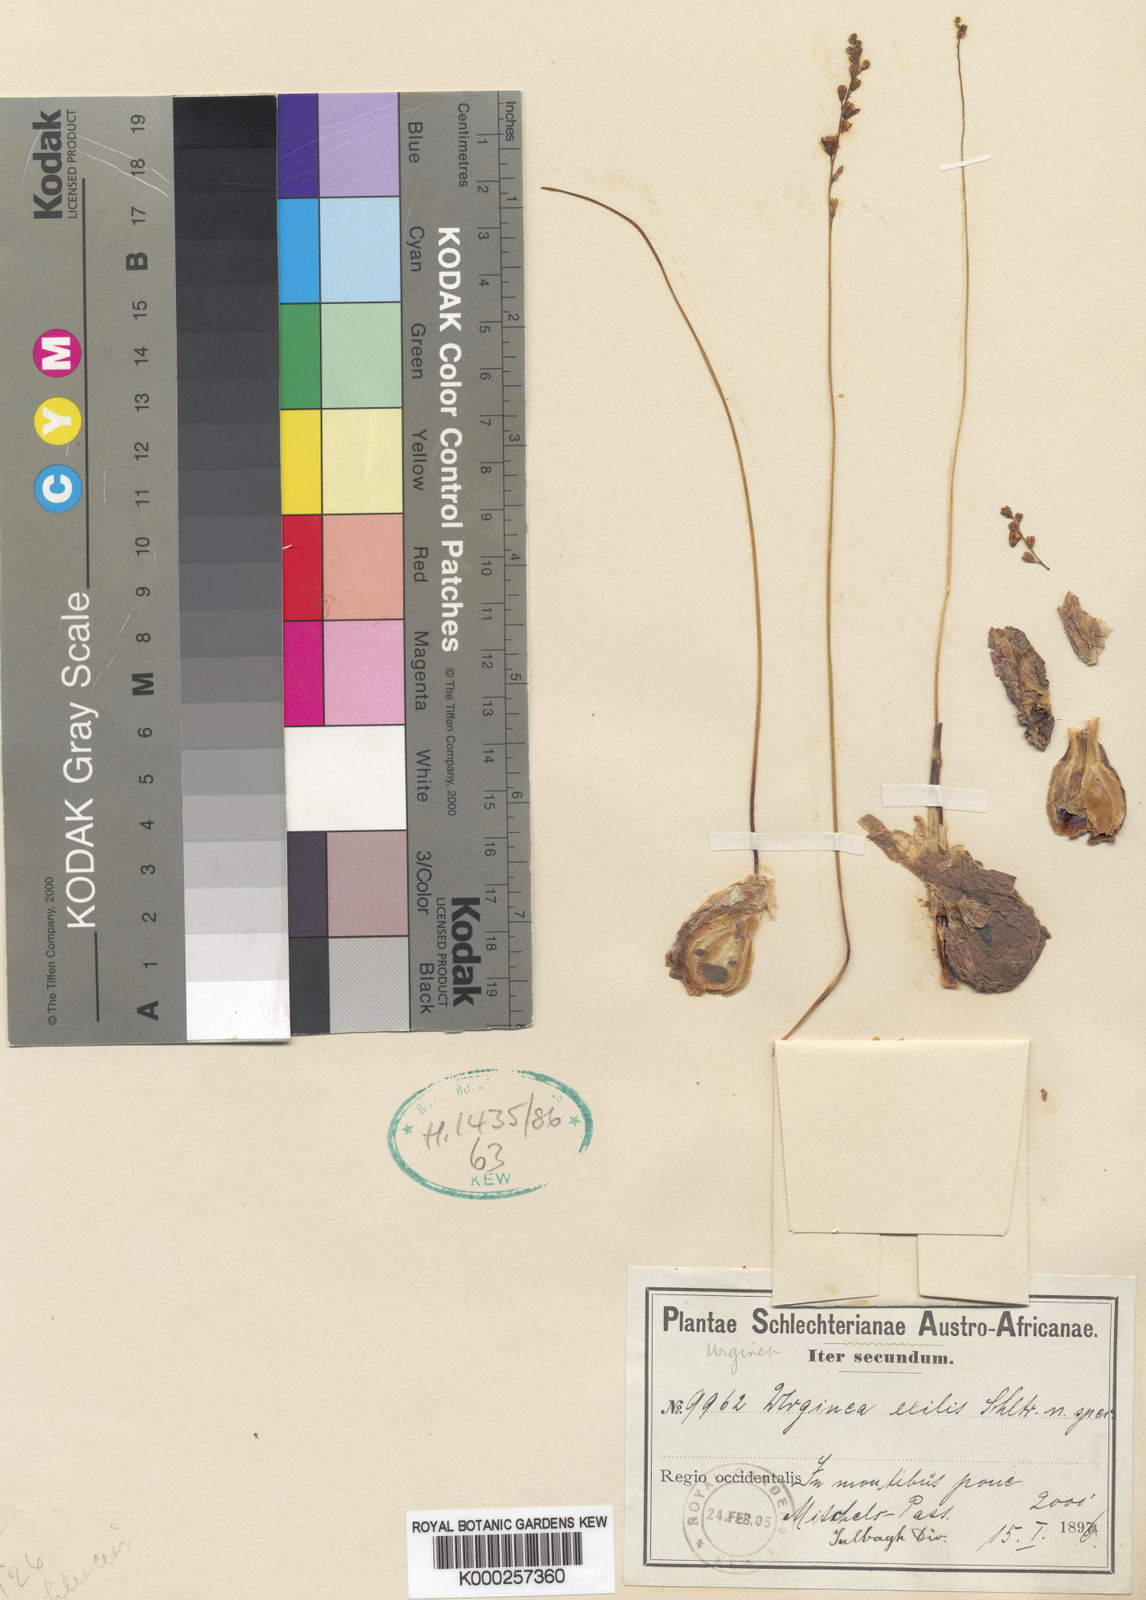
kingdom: Plantae
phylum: Tracheophyta
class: Liliopsida
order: Asparagales
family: Asparagaceae
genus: Drimia
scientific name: Drimia dregei
